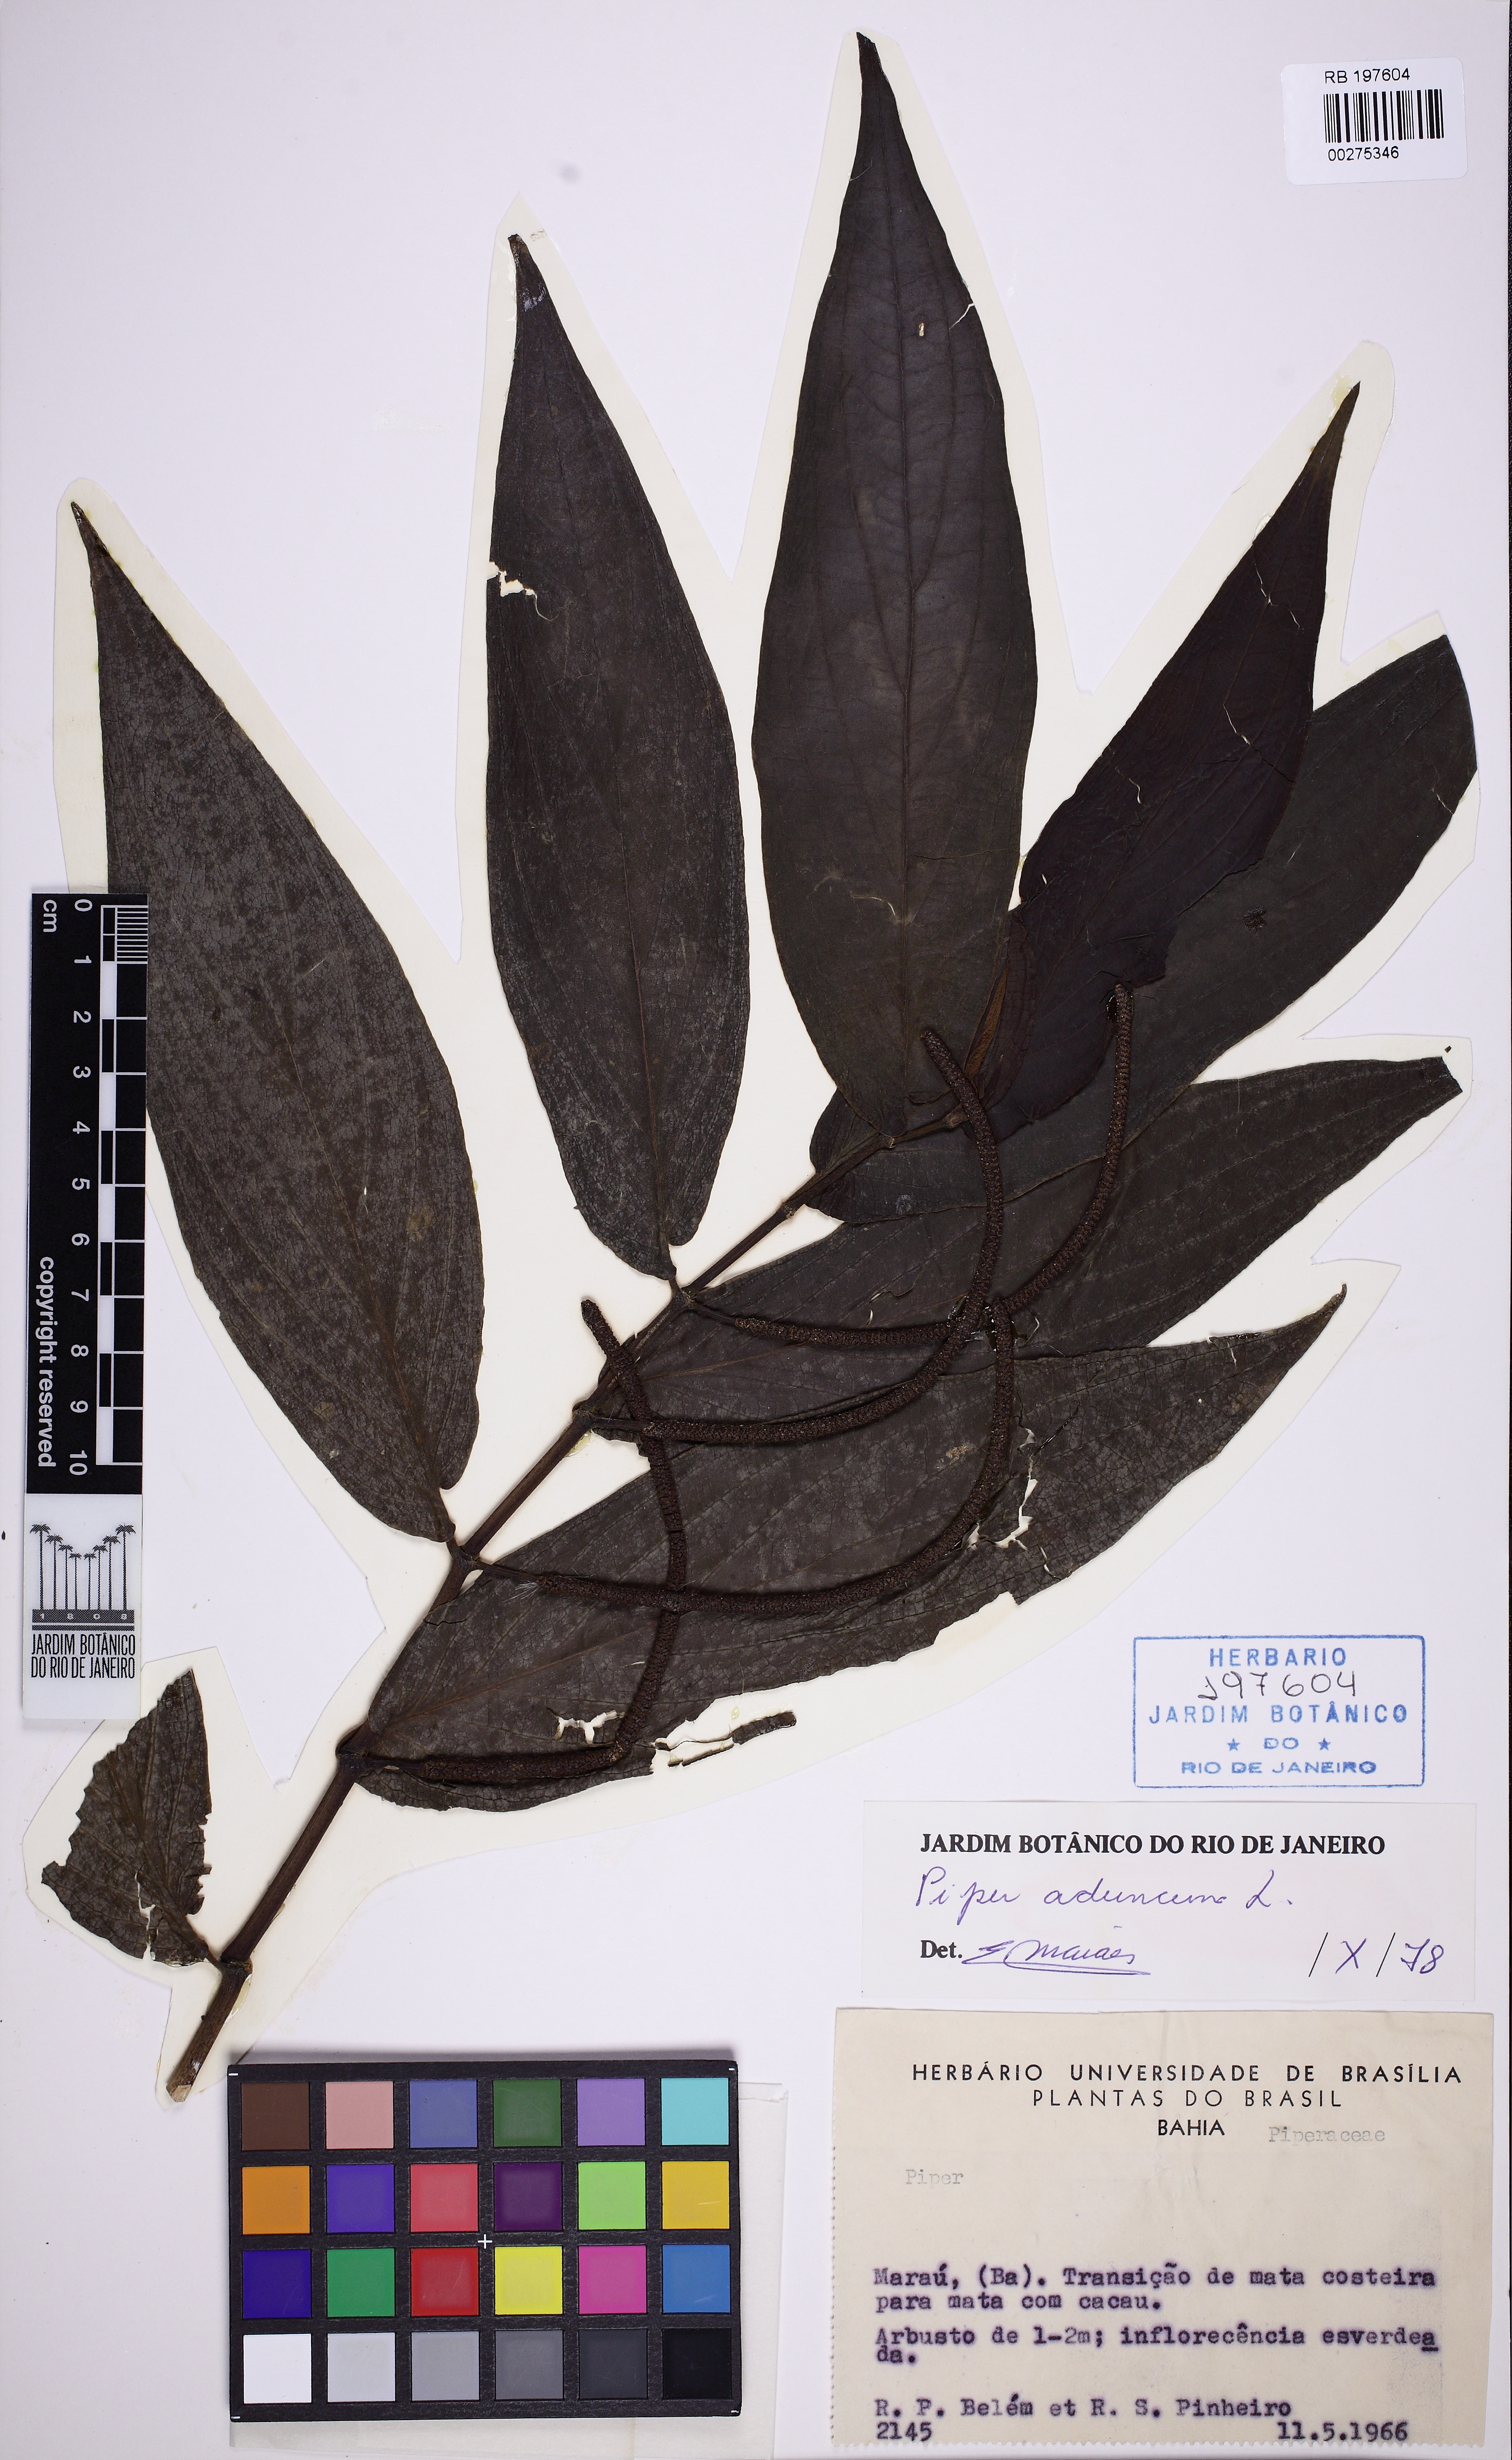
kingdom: Plantae
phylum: Tracheophyta
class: Magnoliopsida
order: Piperales
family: Piperaceae
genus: Piper
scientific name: Piper aduncum
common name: Spiked pepper
